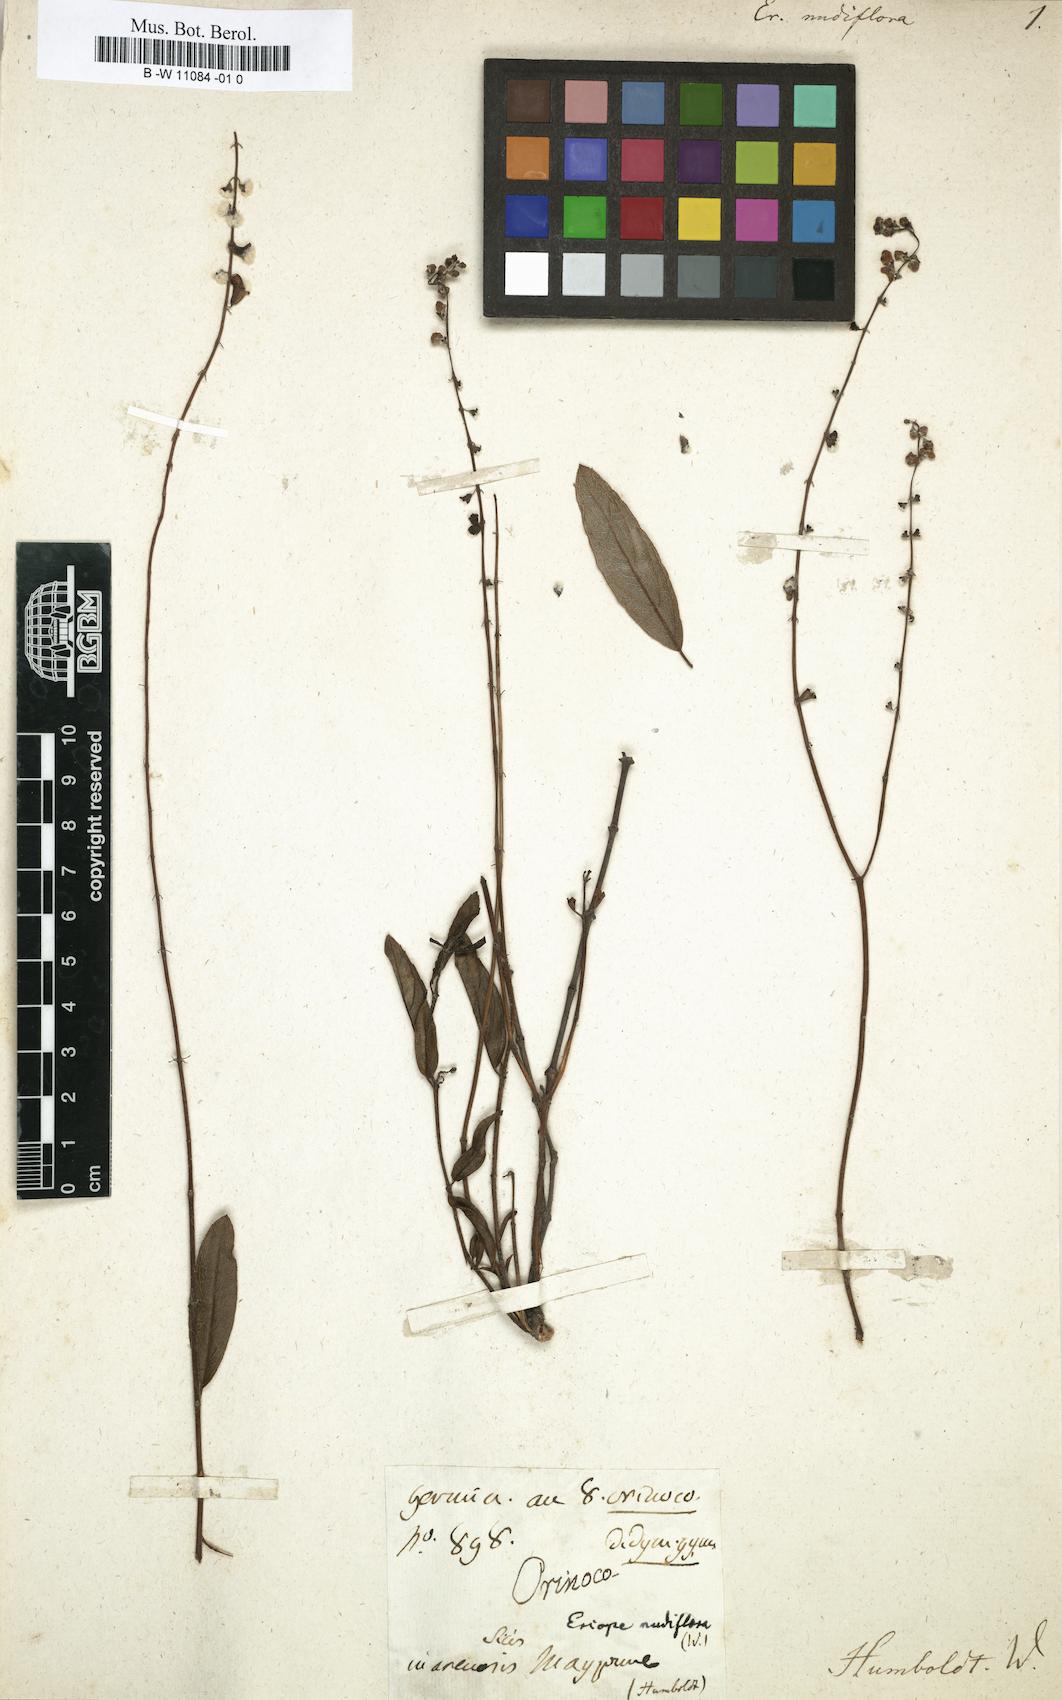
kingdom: Plantae
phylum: Tracheophyta
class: Magnoliopsida
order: Lamiales
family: Lamiaceae
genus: Eriope
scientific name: Eriope crassipes
